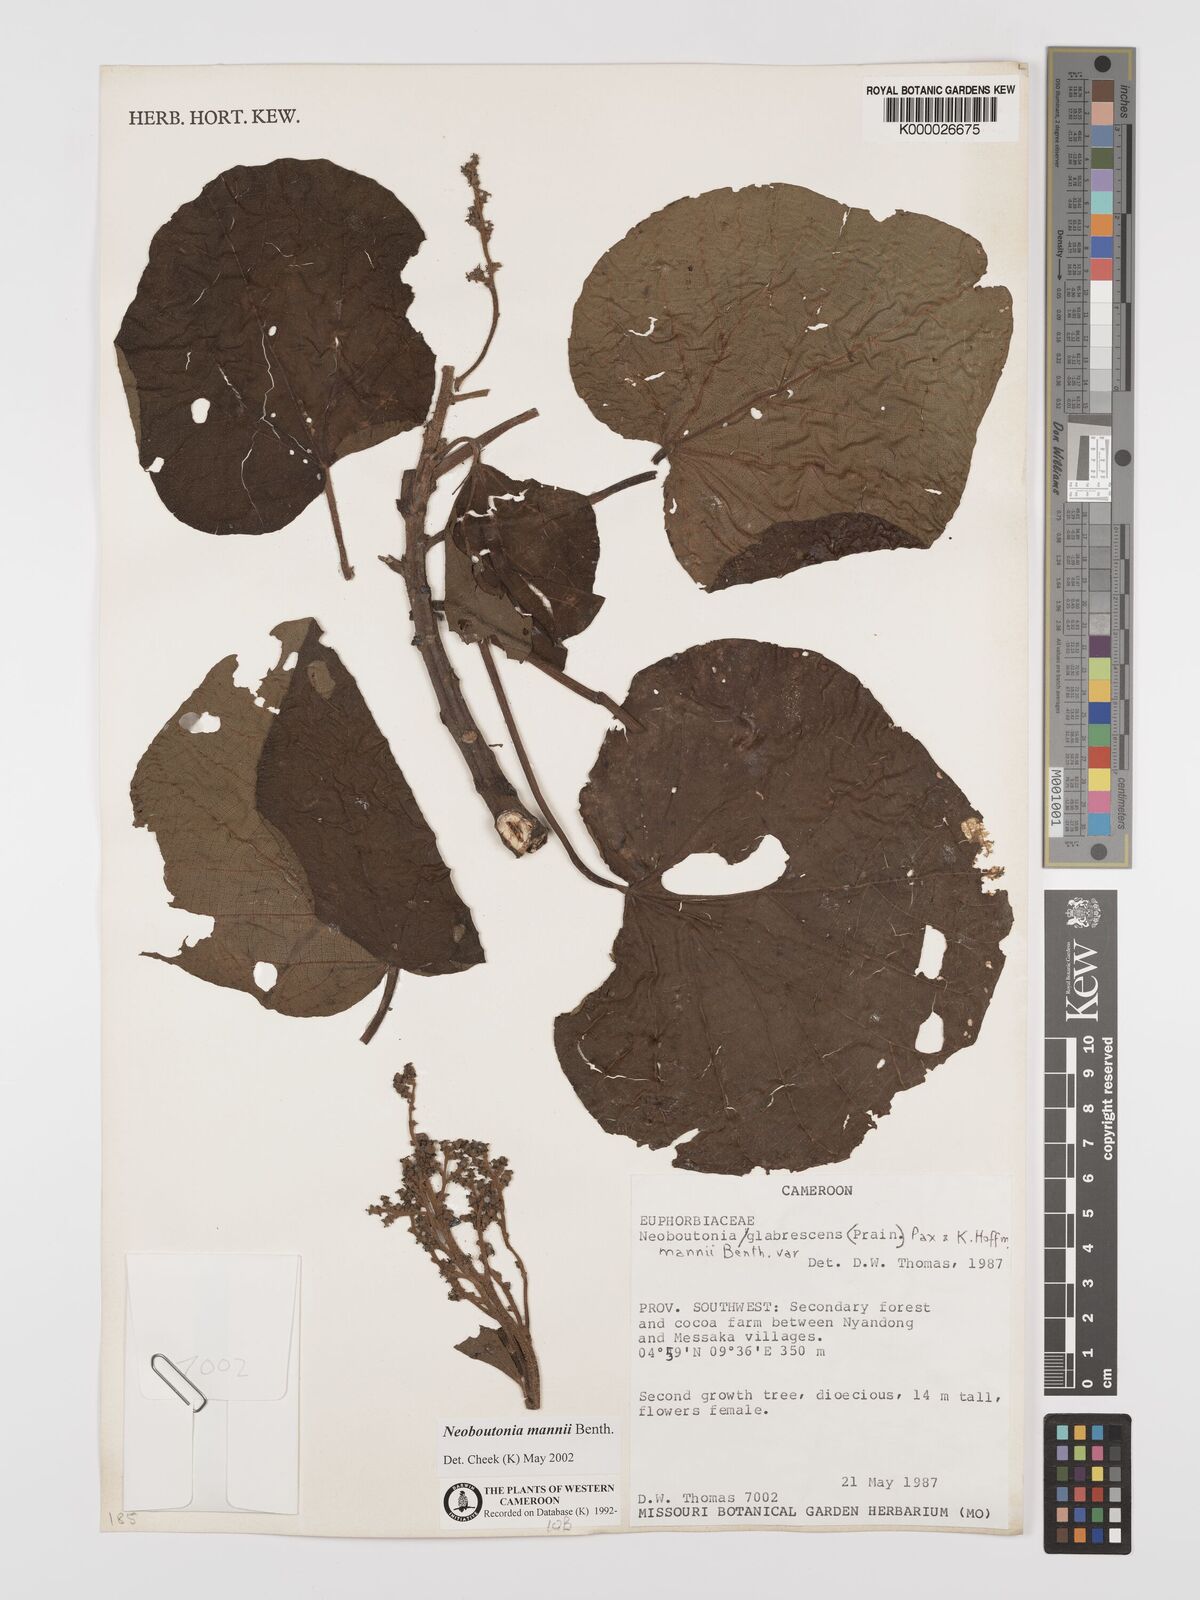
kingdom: Plantae
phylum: Tracheophyta
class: Magnoliopsida
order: Malpighiales
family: Euphorbiaceae
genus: Neoboutonia
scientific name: Neoboutonia mannii
